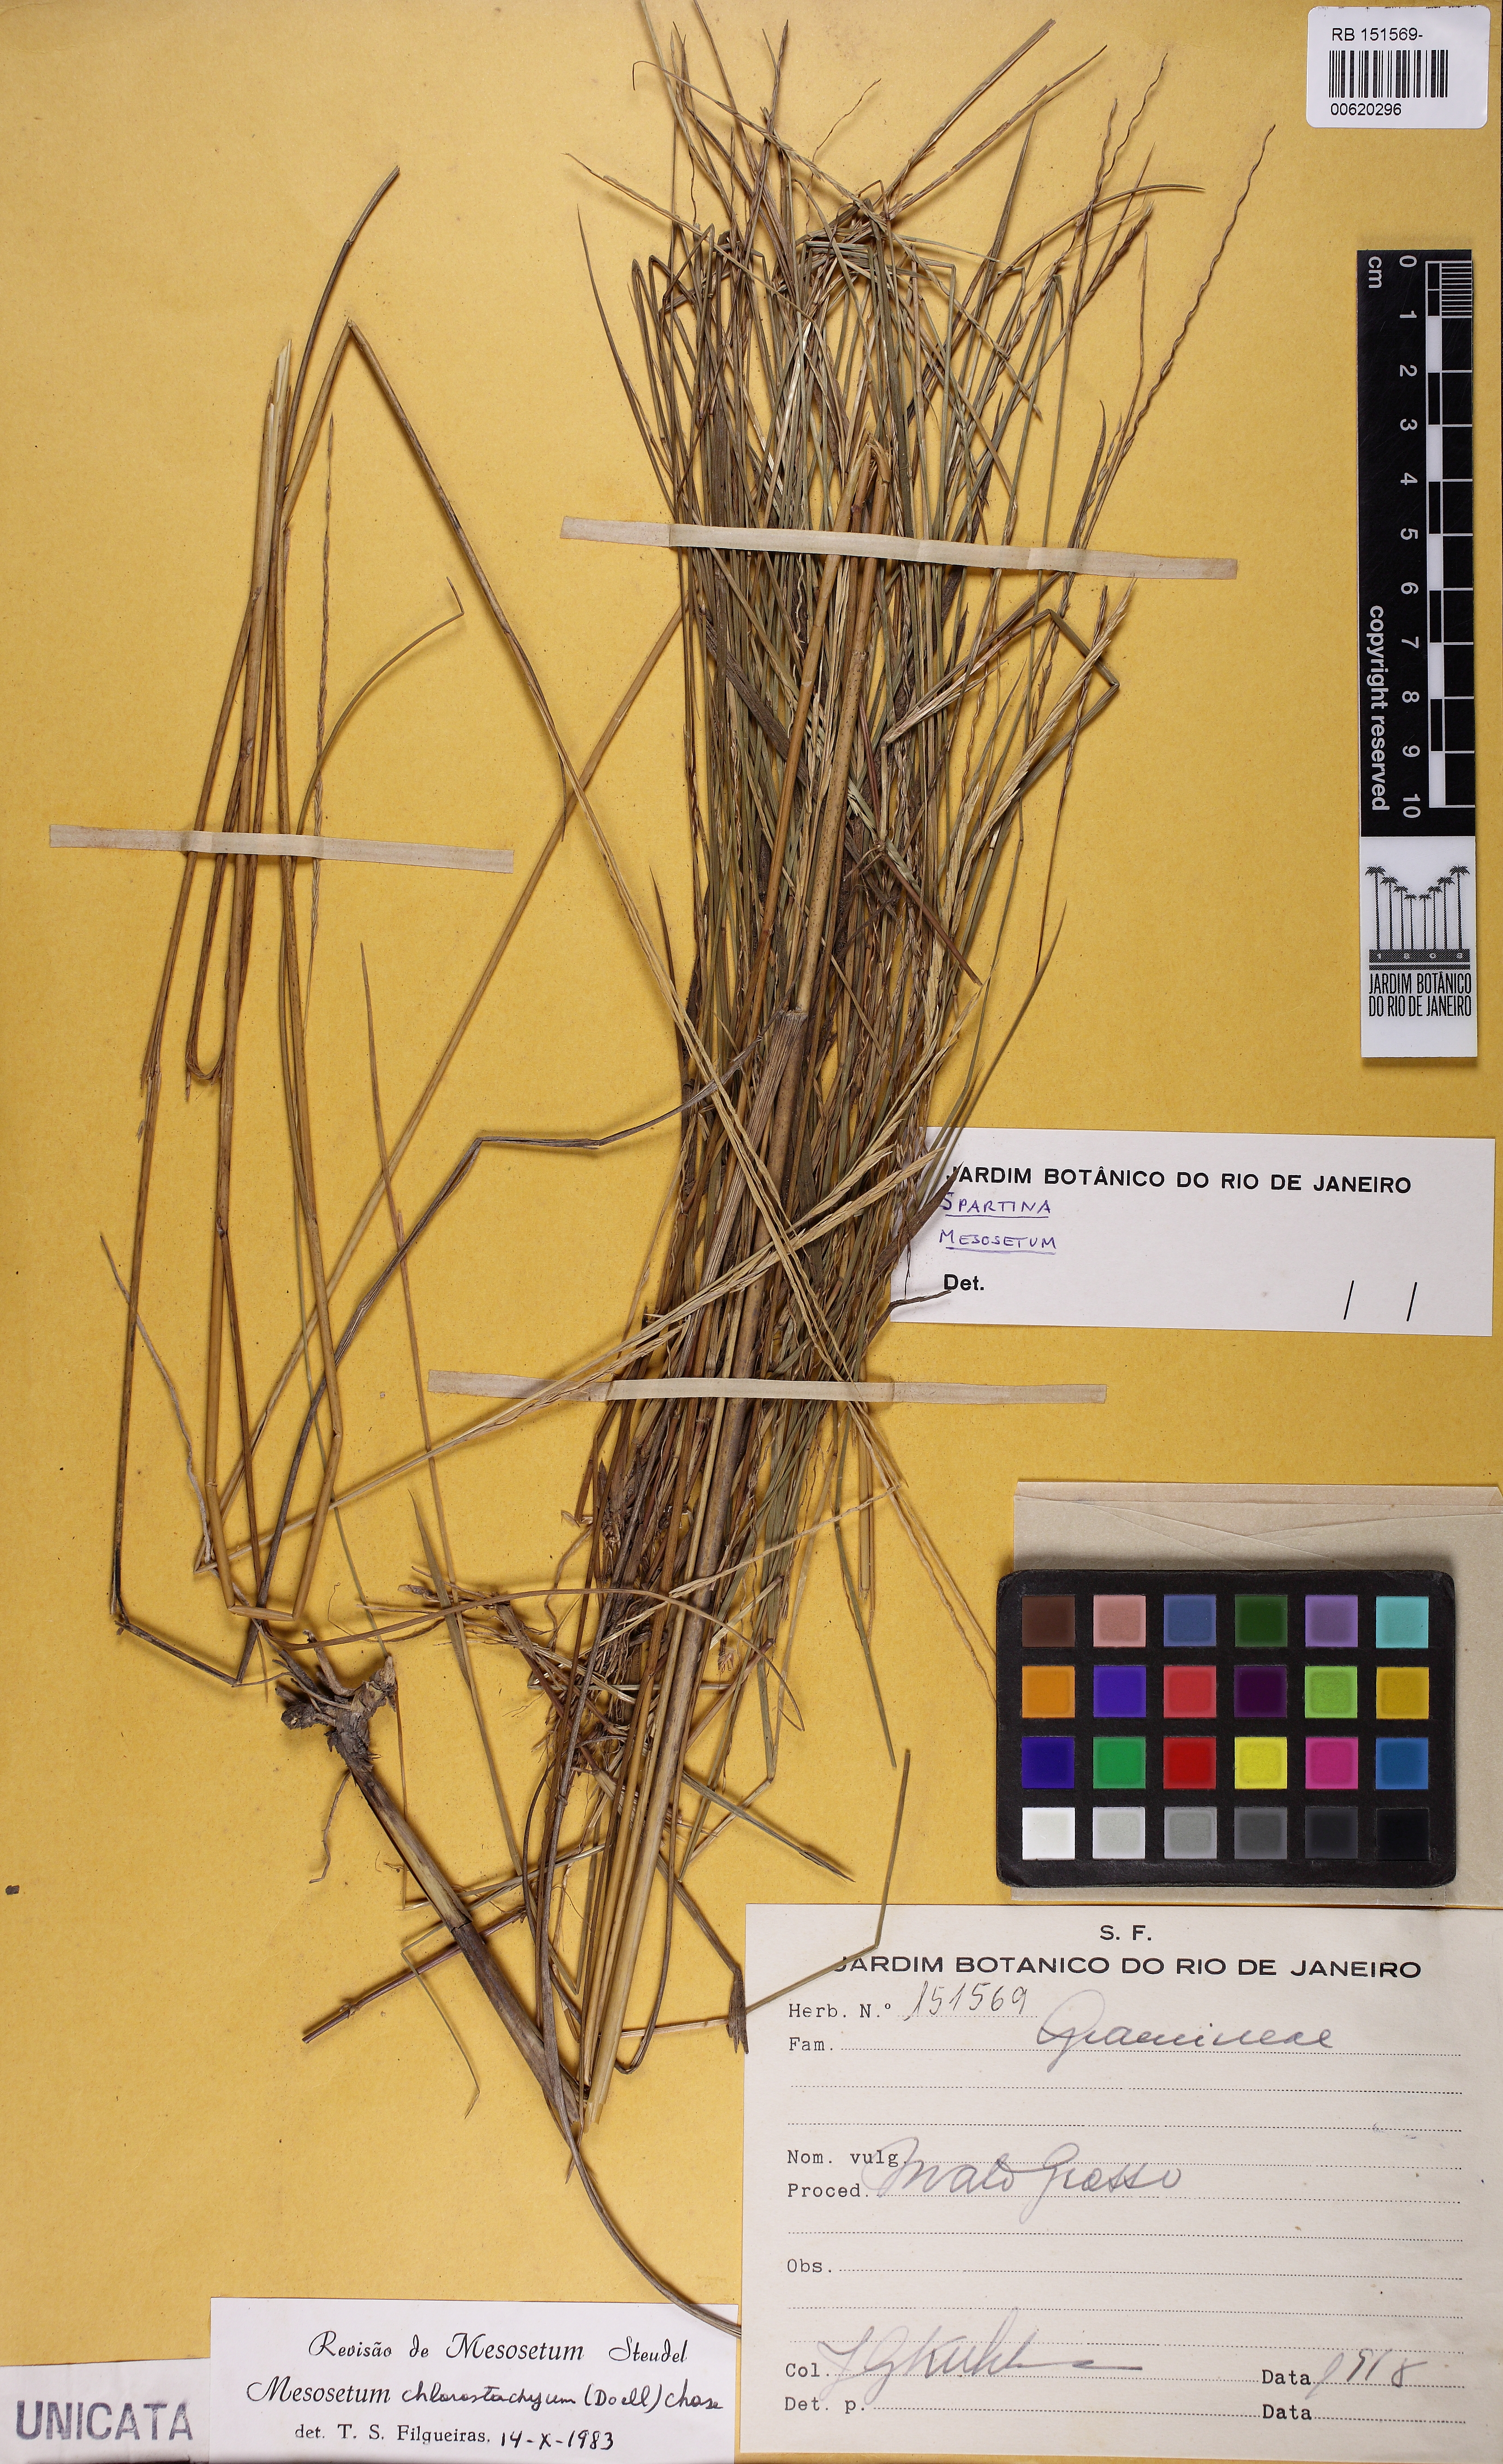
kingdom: Plantae
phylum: Tracheophyta
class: Liliopsida
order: Poales
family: Poaceae
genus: Mesosetum
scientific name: Mesosetum chlorostachyum
